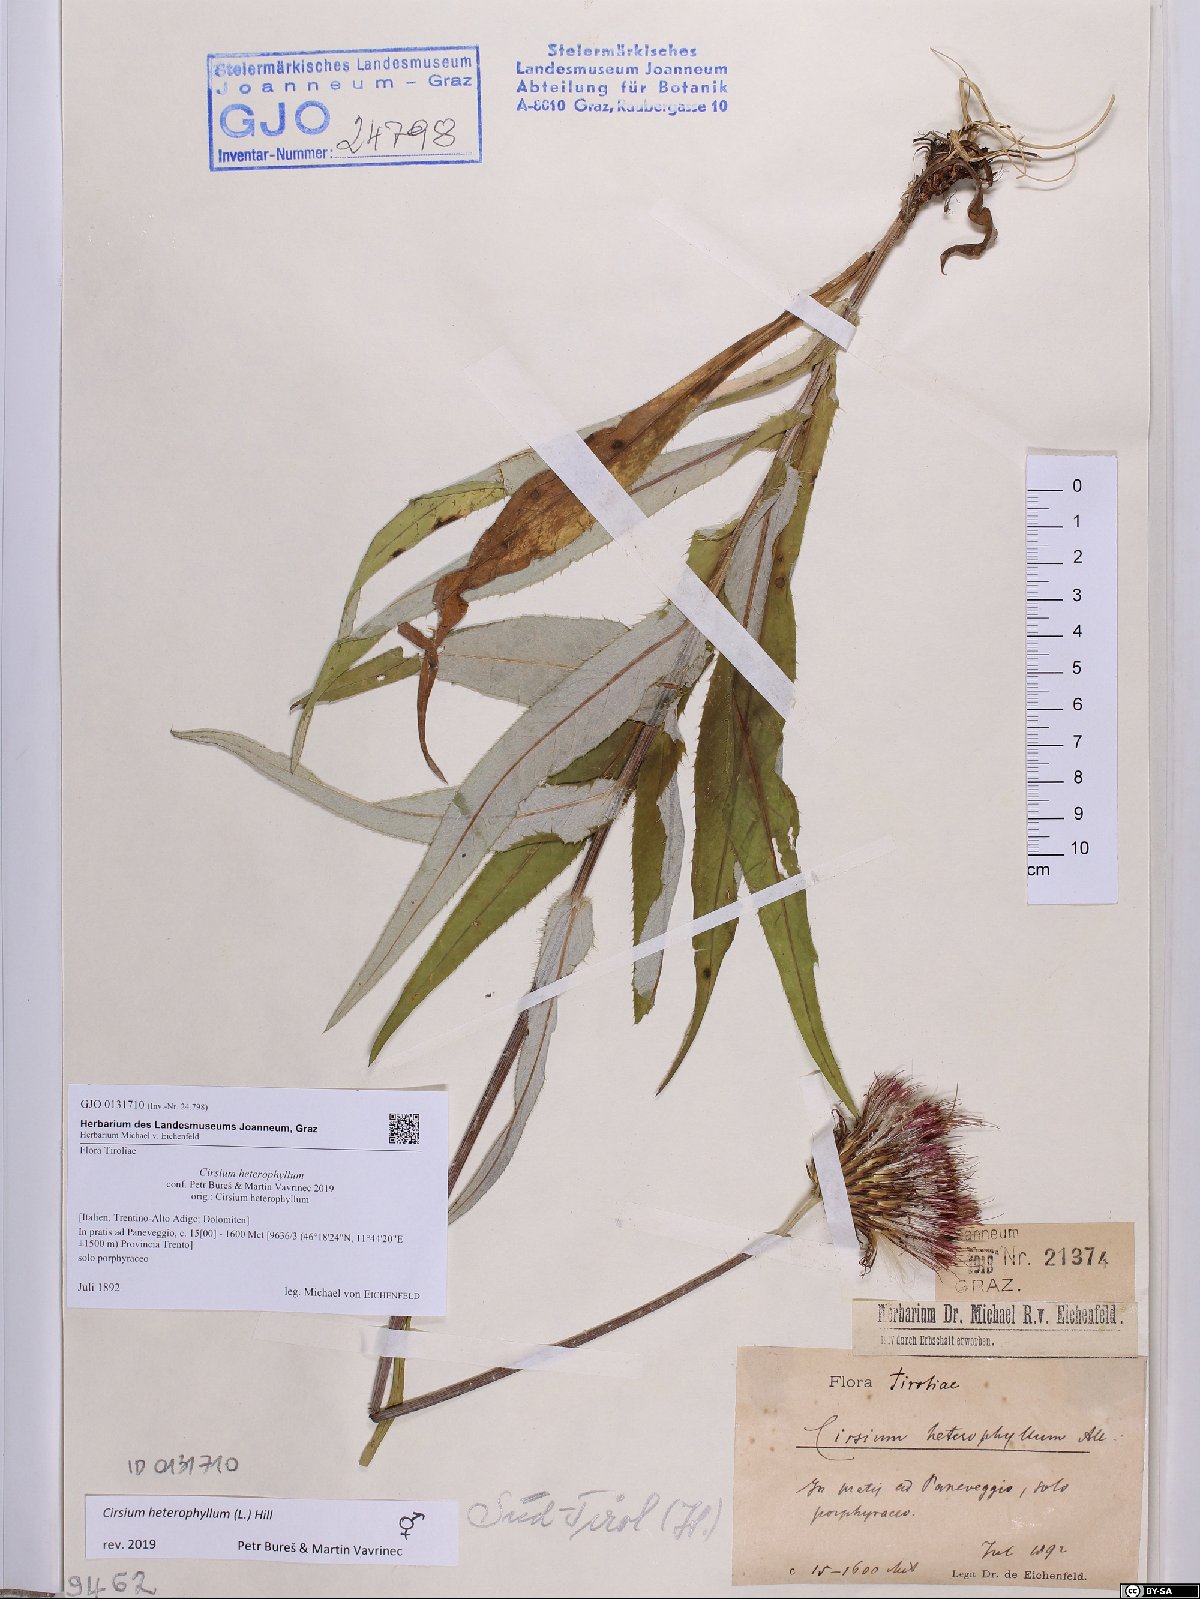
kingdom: Plantae
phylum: Tracheophyta
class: Magnoliopsida
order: Asterales
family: Asteraceae
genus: Cirsium
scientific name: Cirsium heterophyllum
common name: Melancholy thistle
